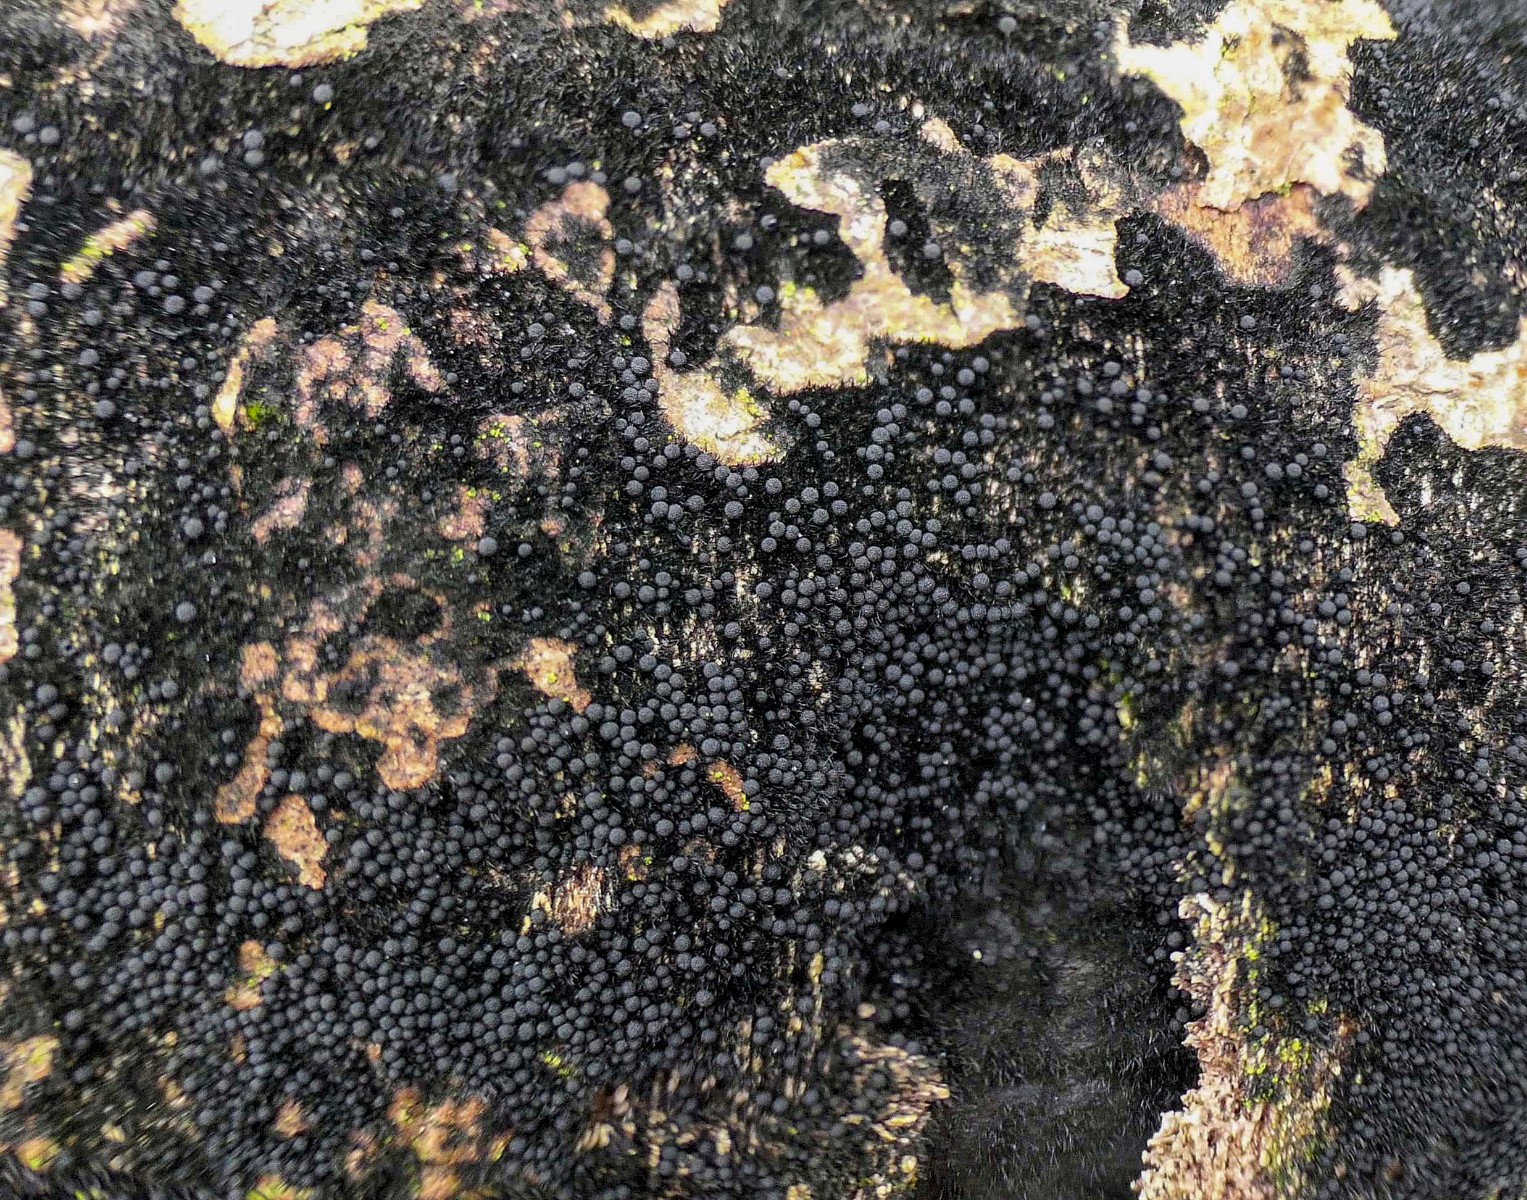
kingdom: Fungi
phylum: Ascomycota
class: Sordariomycetes
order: Coronophorales
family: Chaetosphaerellaceae
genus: Chaetosphaerella
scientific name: Chaetosphaerella phaeostroma
